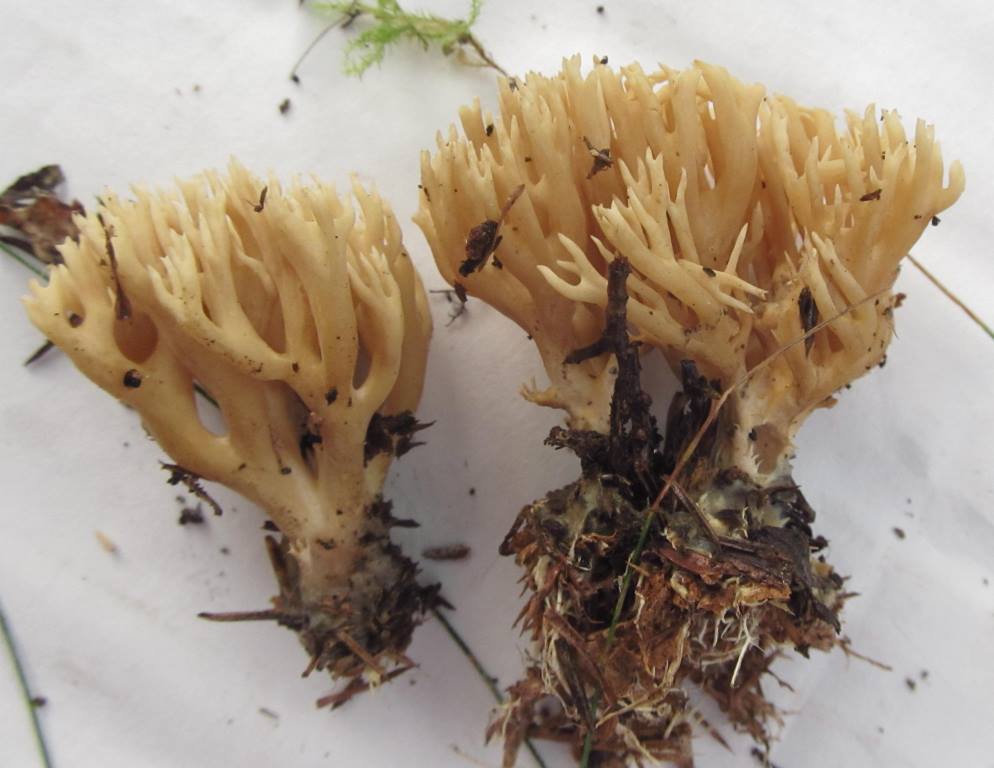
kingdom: Fungi
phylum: Basidiomycota
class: Agaricomycetes
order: Gomphales
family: Gomphaceae
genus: Phaeoclavulina
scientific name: Phaeoclavulina eumorpha
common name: gran-koralsvamp
